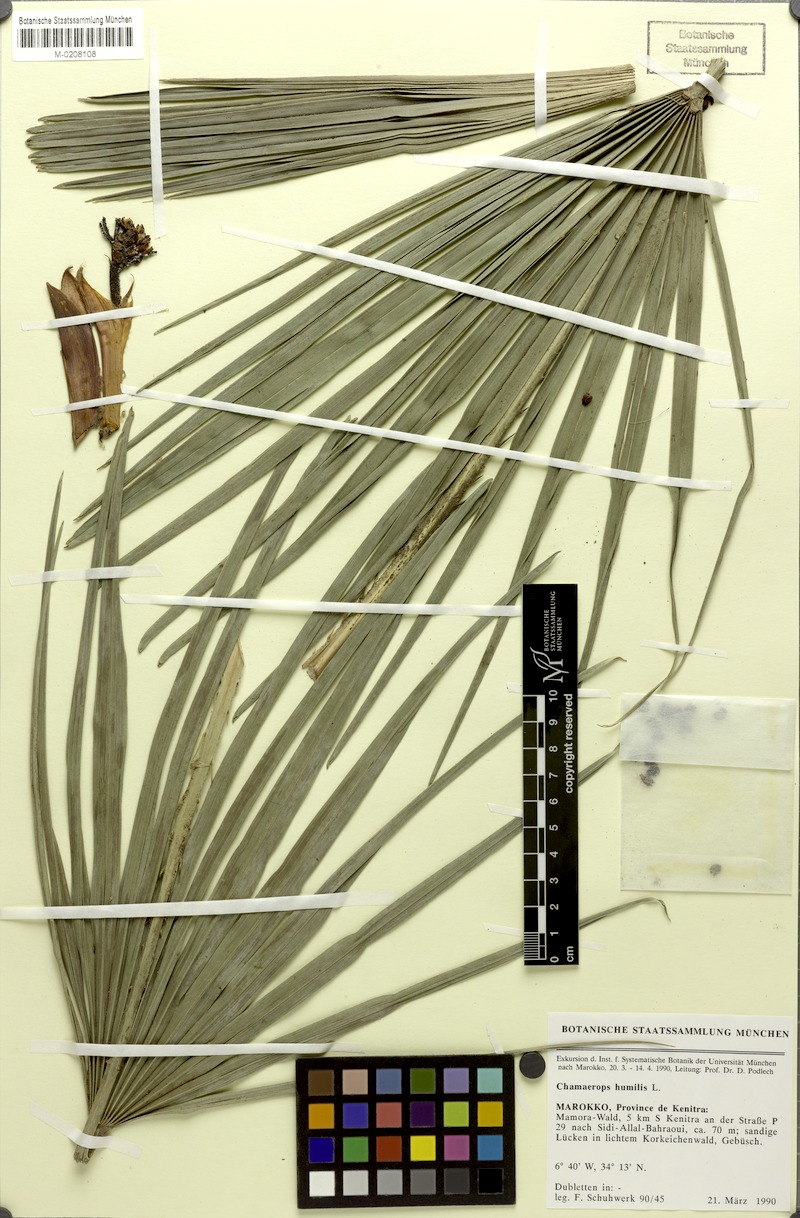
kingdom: Plantae
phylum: Tracheophyta
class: Liliopsida
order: Arecales
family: Arecaceae
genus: Chamaerops
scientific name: Chamaerops humilis
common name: Dwarf fan palm
